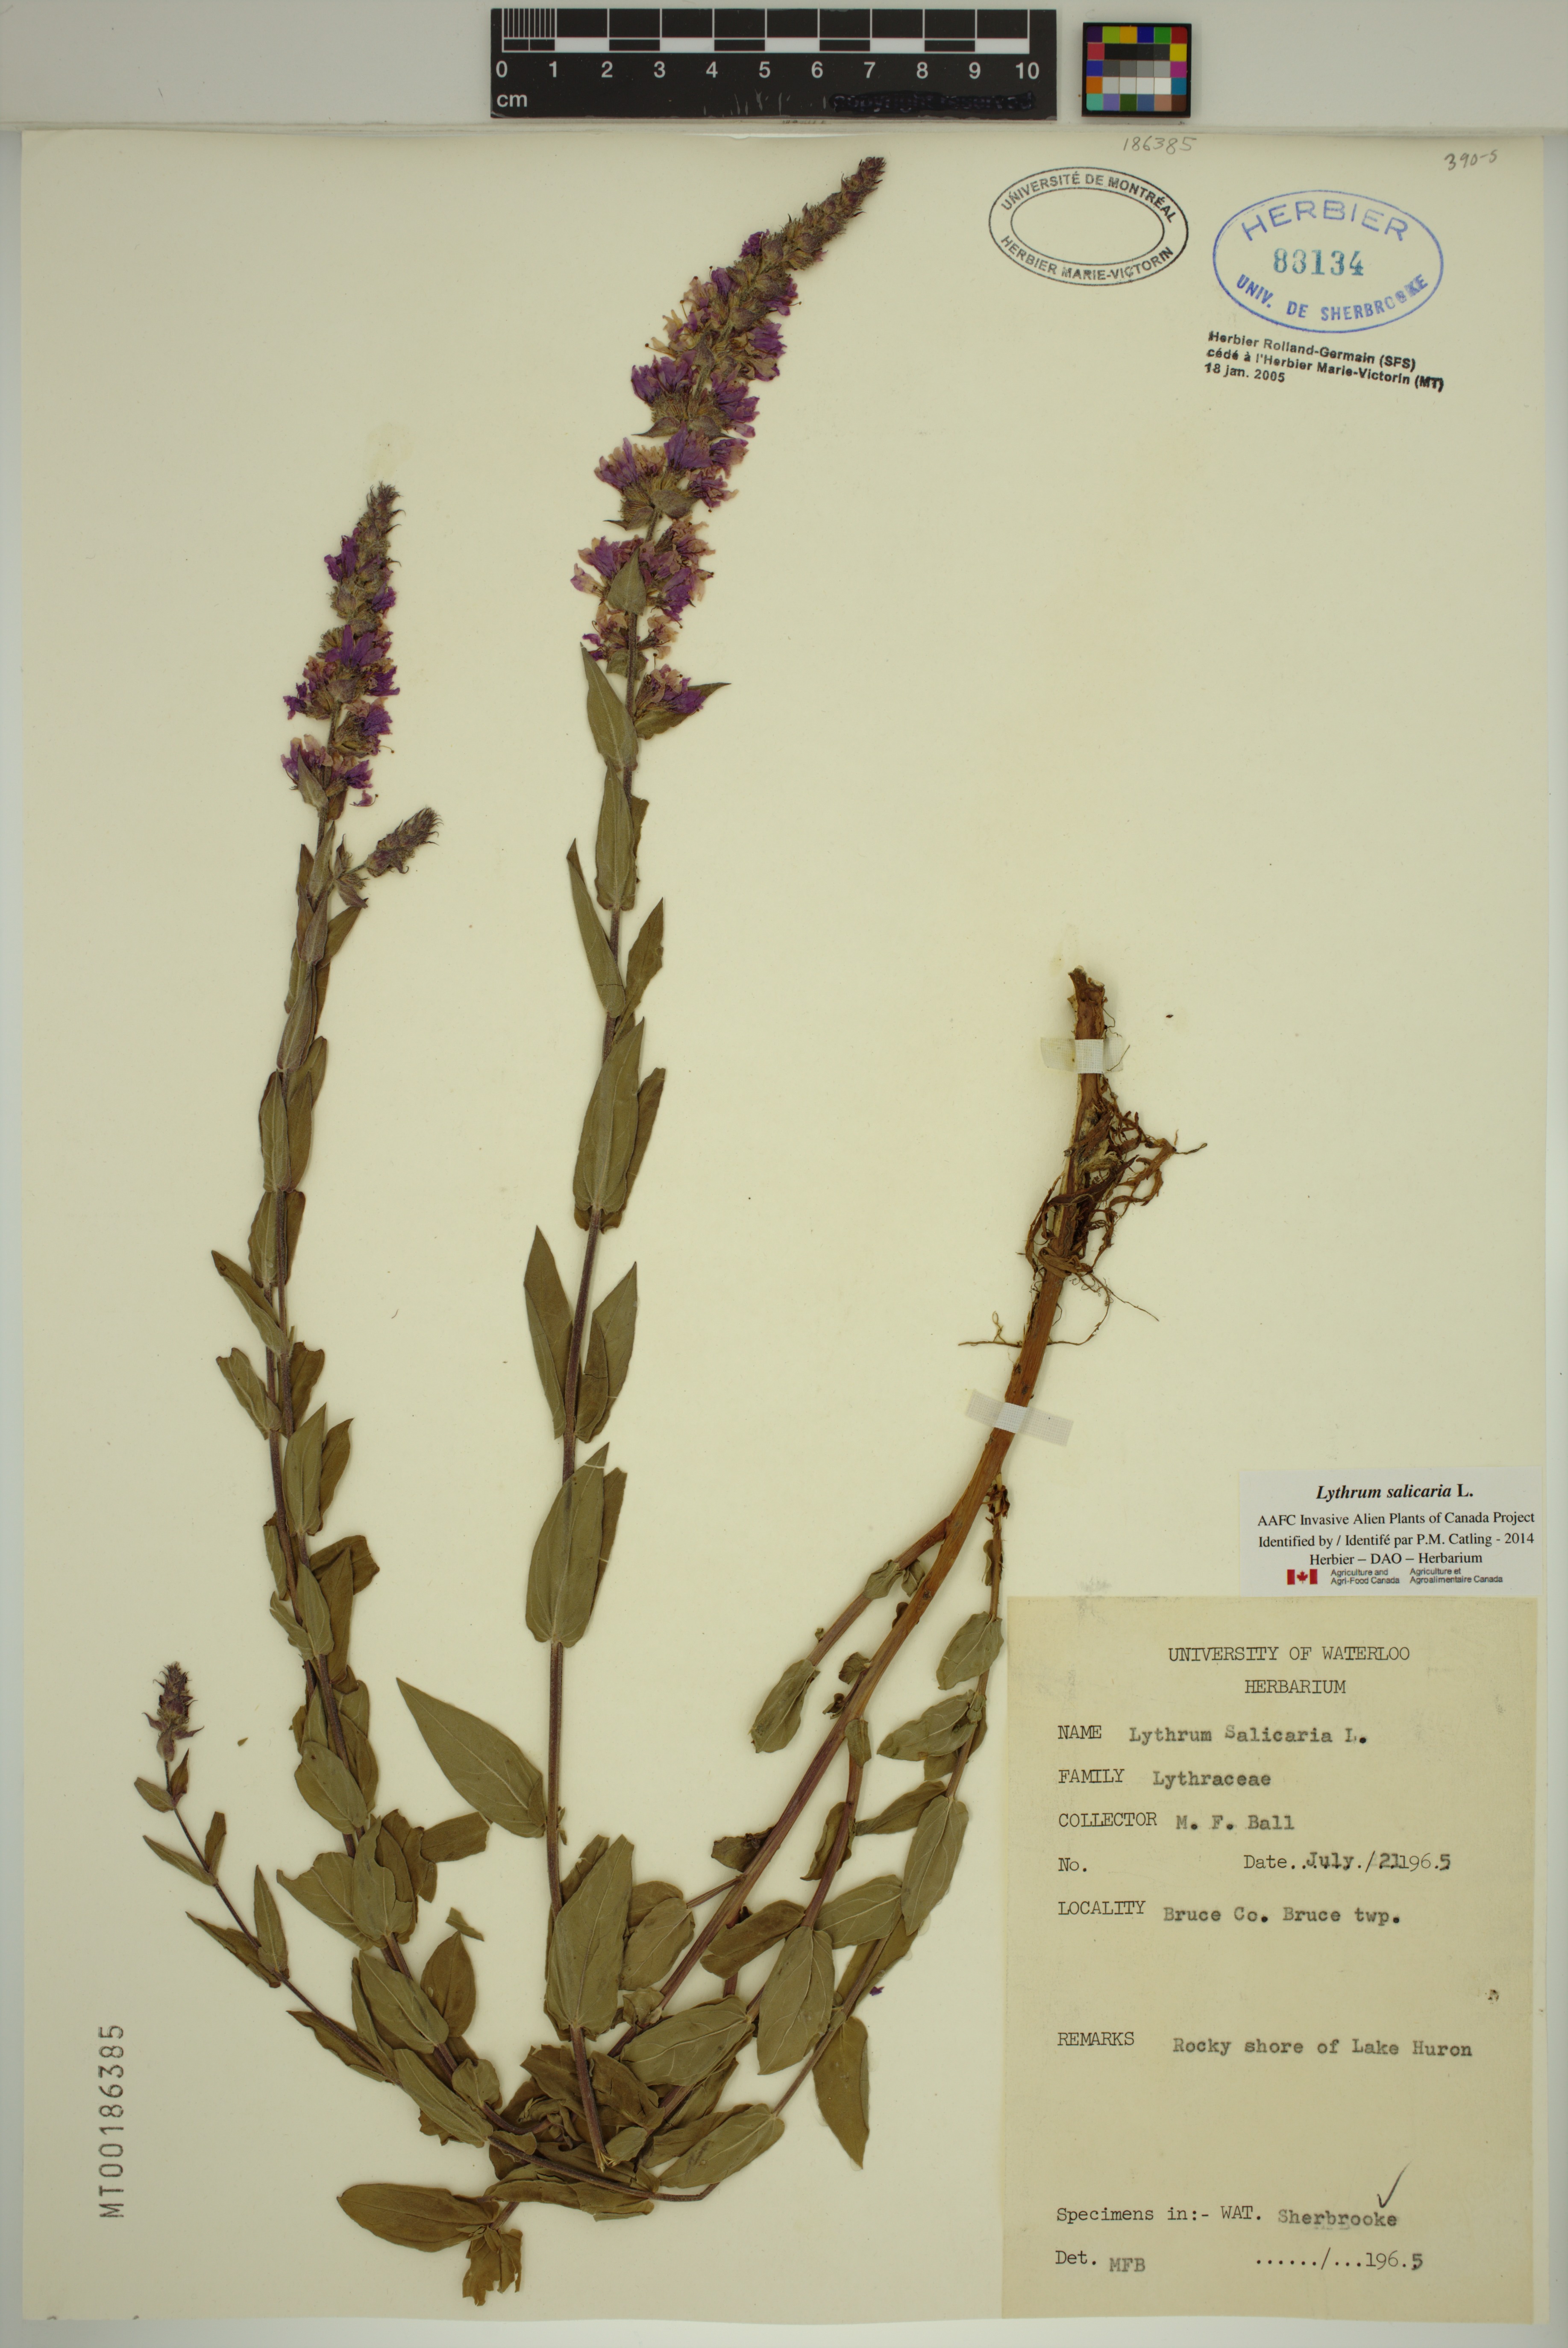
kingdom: Plantae
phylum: Tracheophyta
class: Magnoliopsida
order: Myrtales
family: Lythraceae
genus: Lythrum
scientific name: Lythrum salicaria
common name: Purple loosestrife
